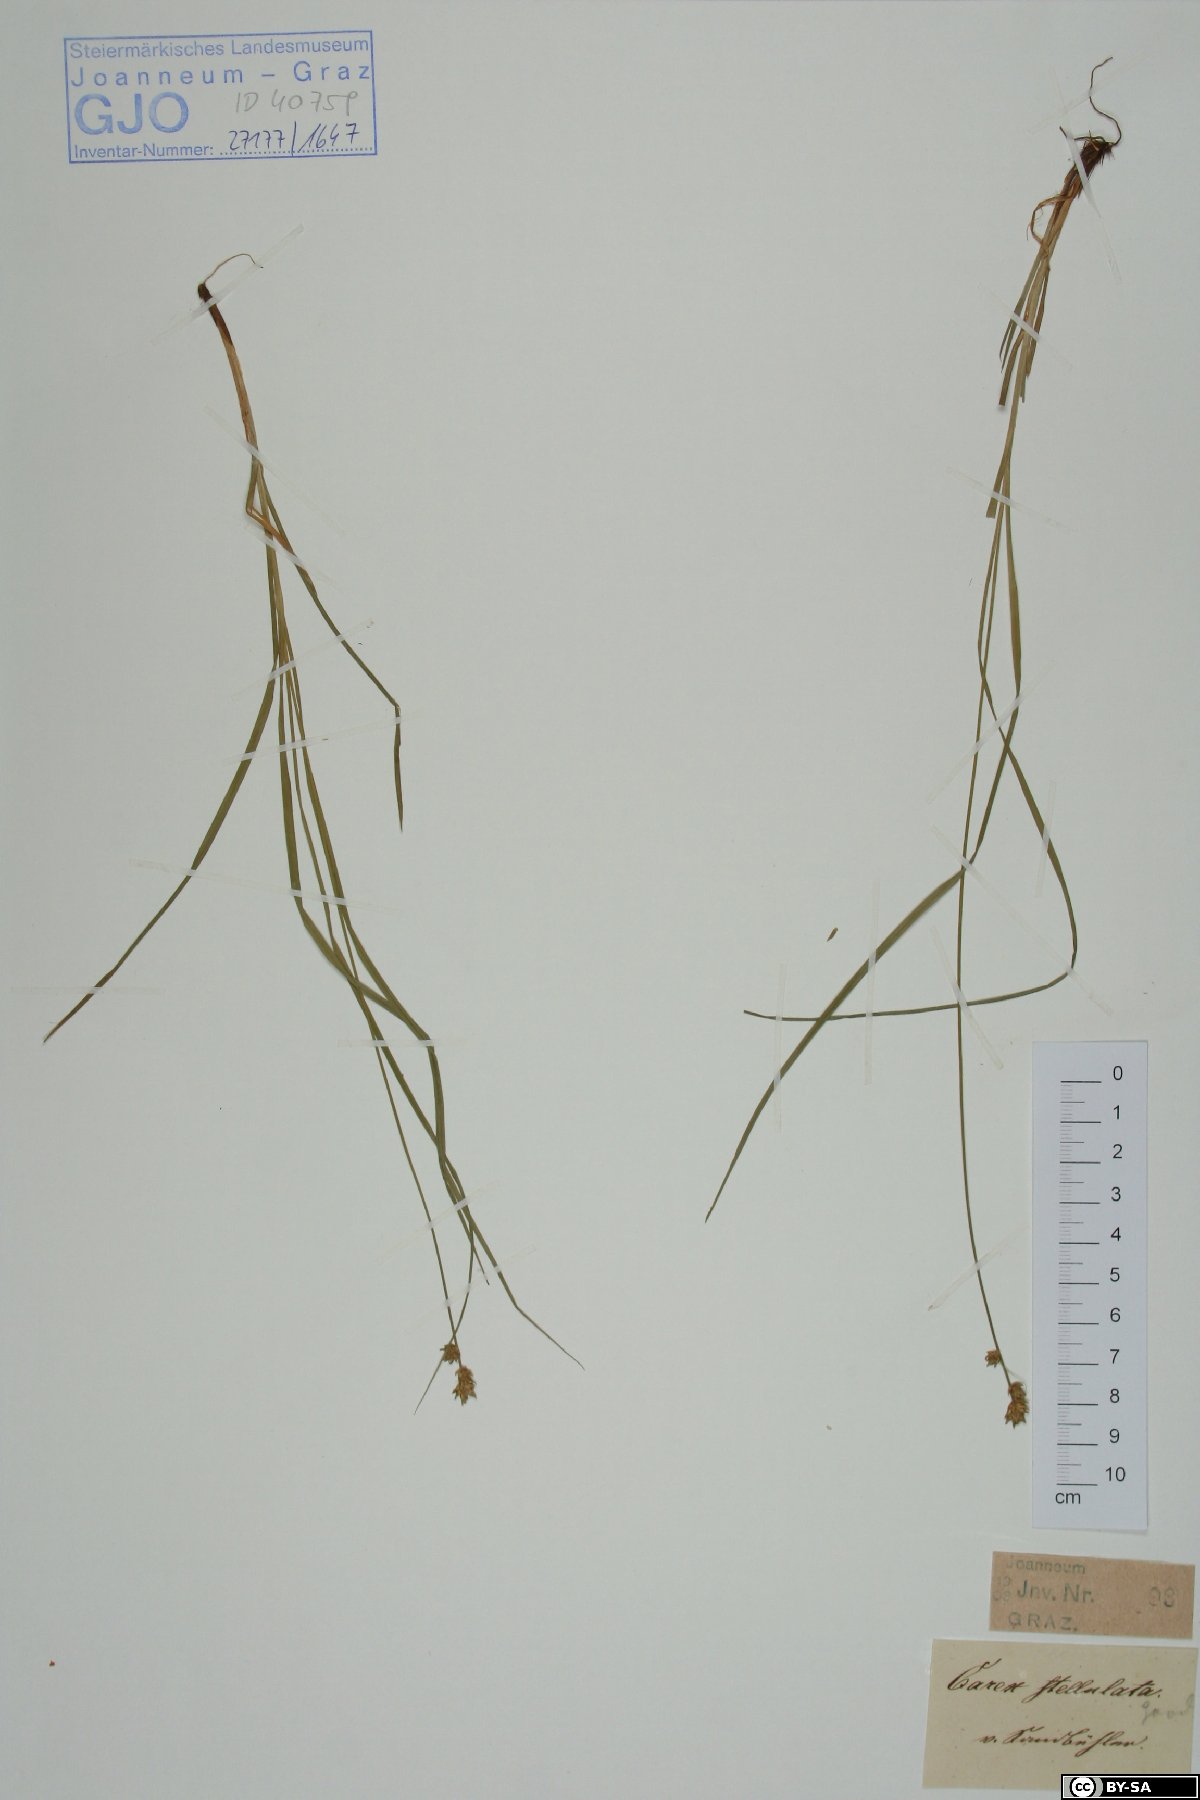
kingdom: Plantae
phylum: Tracheophyta
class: Liliopsida
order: Poales
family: Cyperaceae
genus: Carex
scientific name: Carex echinata
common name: Star sedge
